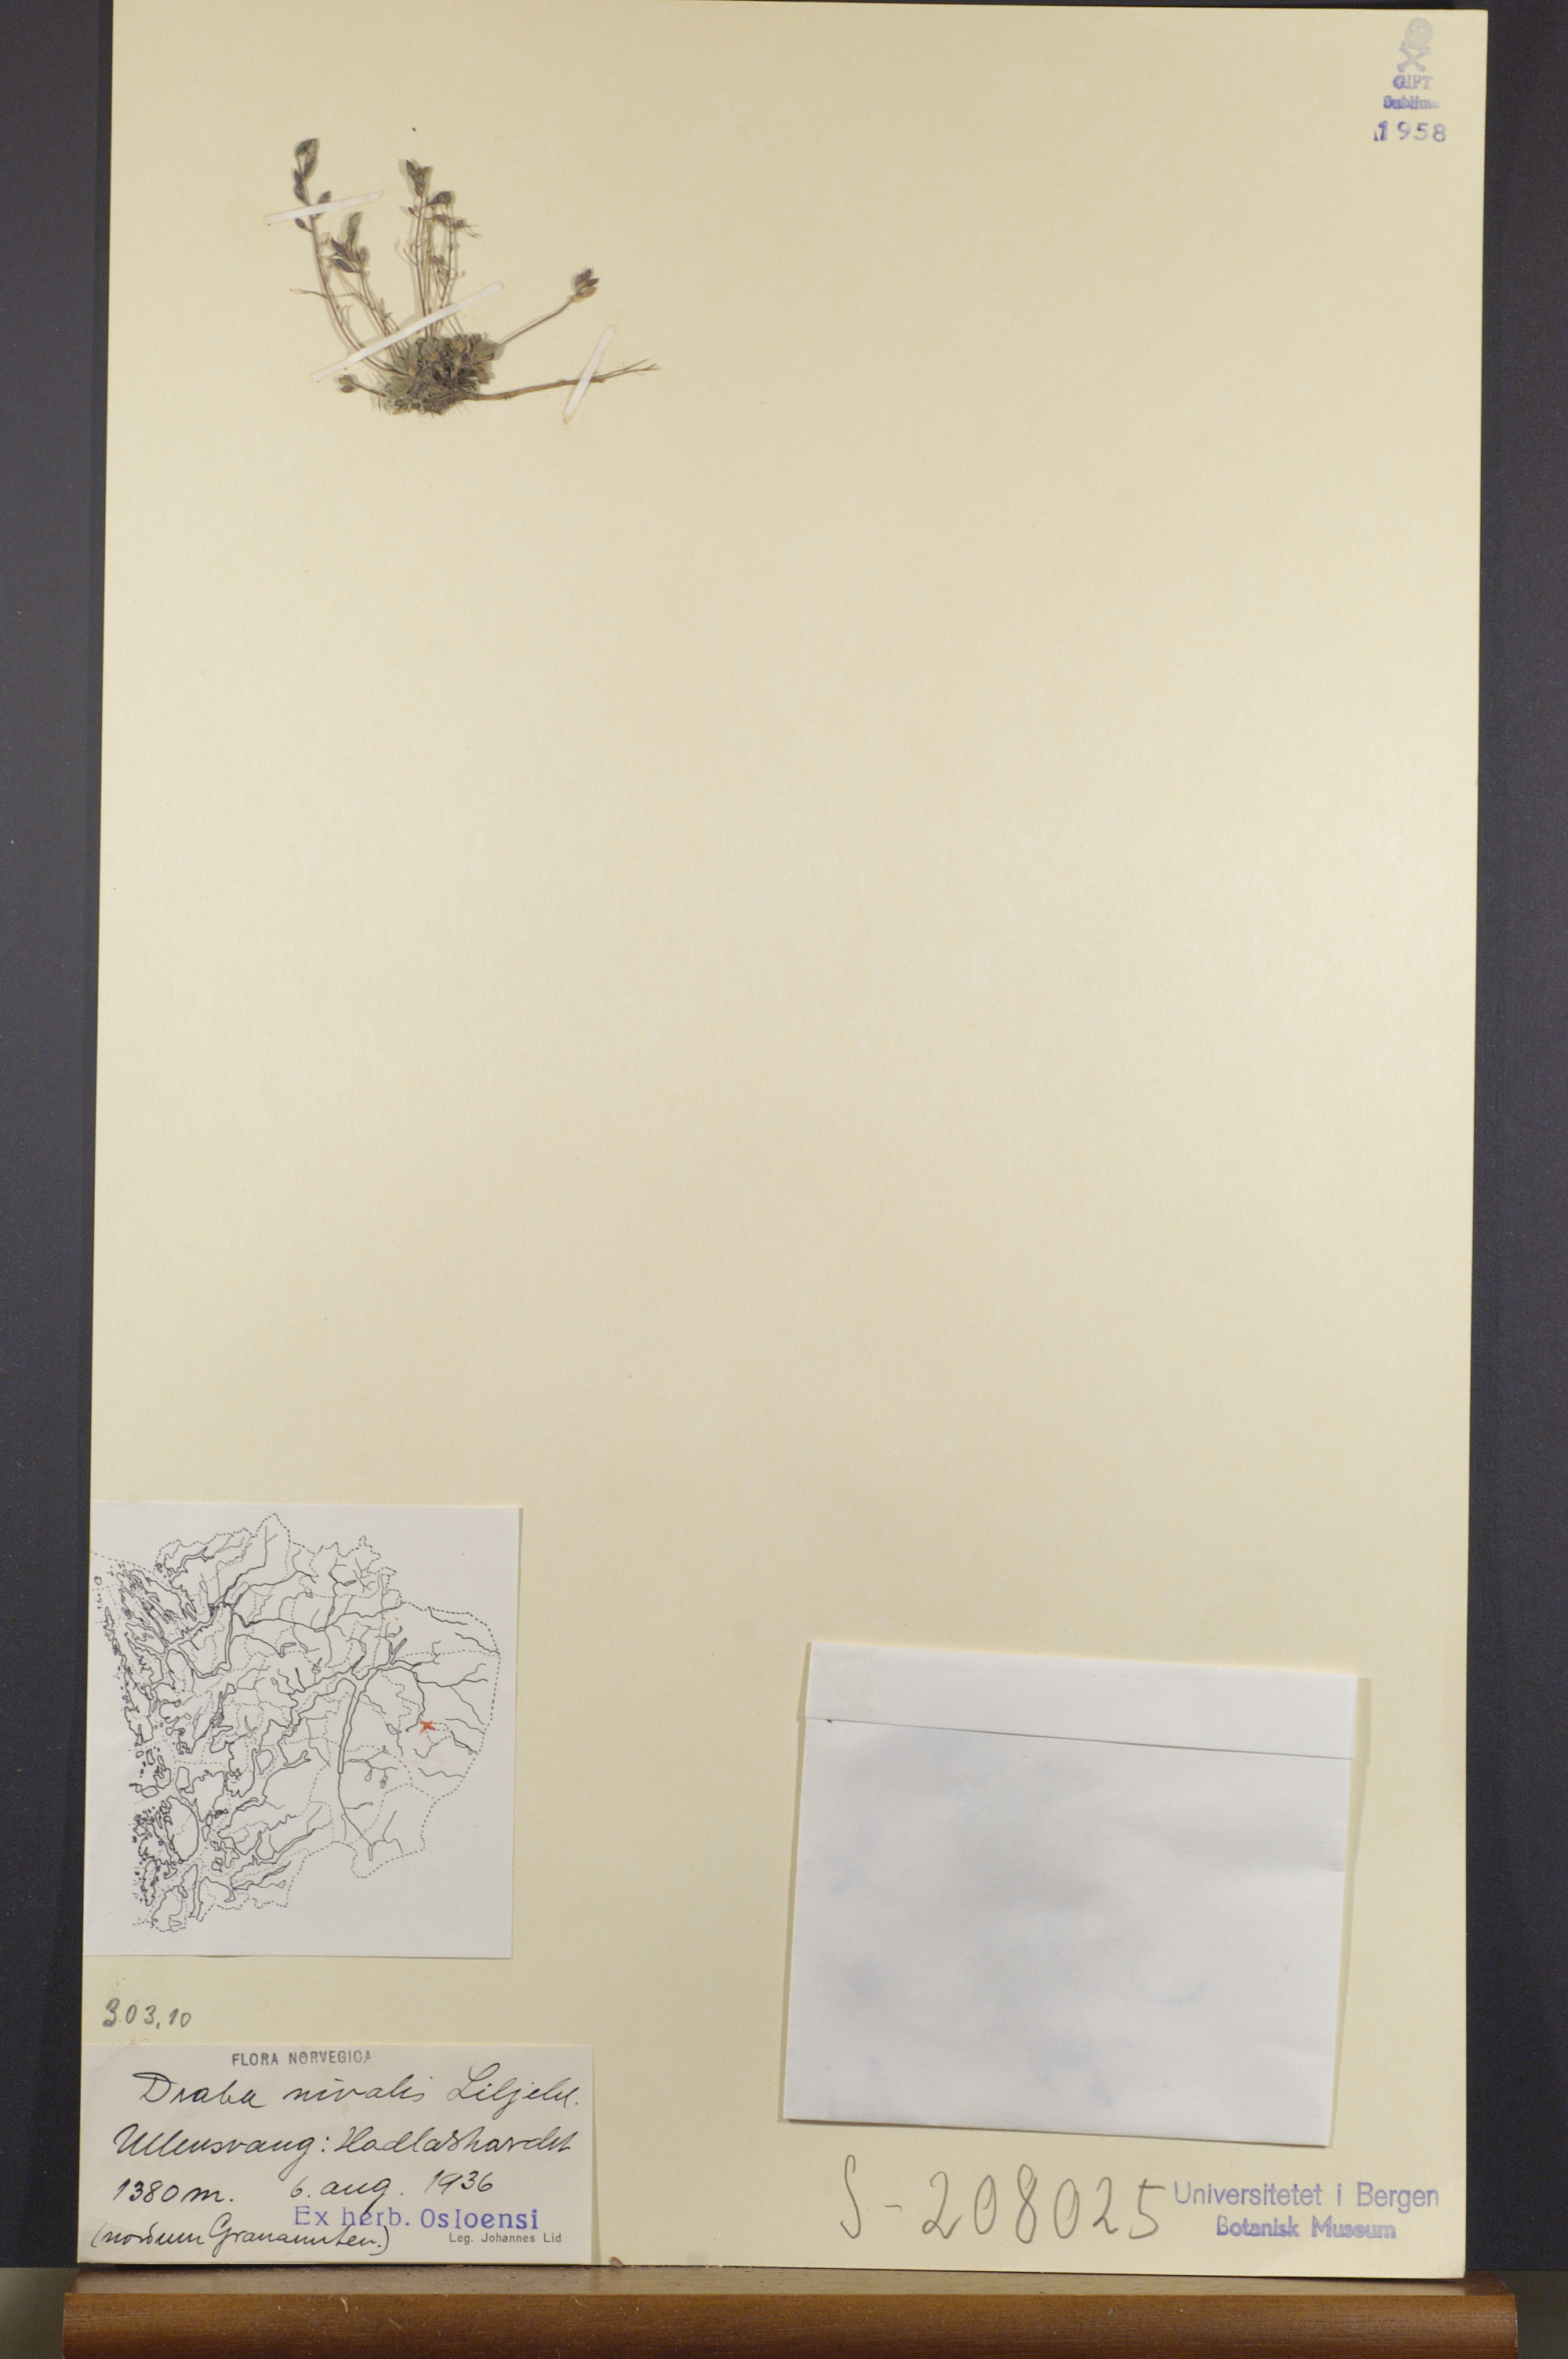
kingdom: Plantae
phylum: Tracheophyta
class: Magnoliopsida
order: Brassicales
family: Brassicaceae
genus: Draba
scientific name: Draba nivalis
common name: Snow draba
